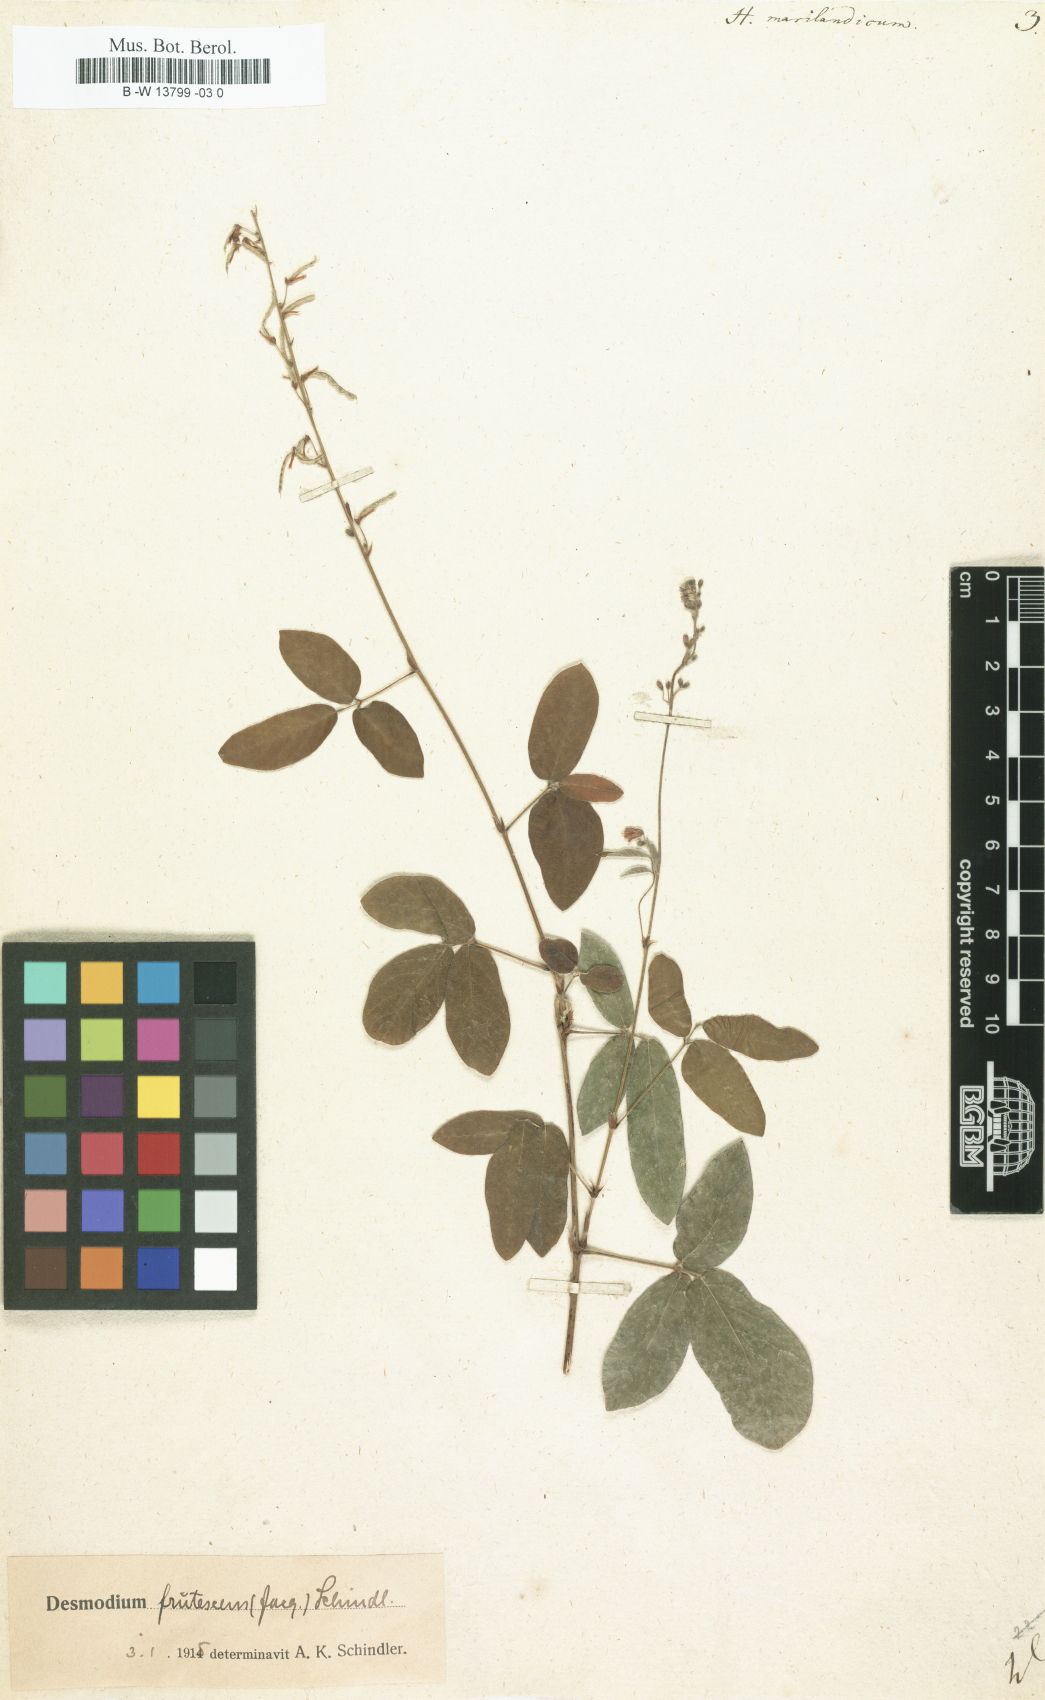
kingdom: Plantae
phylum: Tracheophyta
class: Magnoliopsida
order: Fabales
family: Fabaceae
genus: Desmodium
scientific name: Desmodium marilandicum
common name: Maryland tick-trefoil
